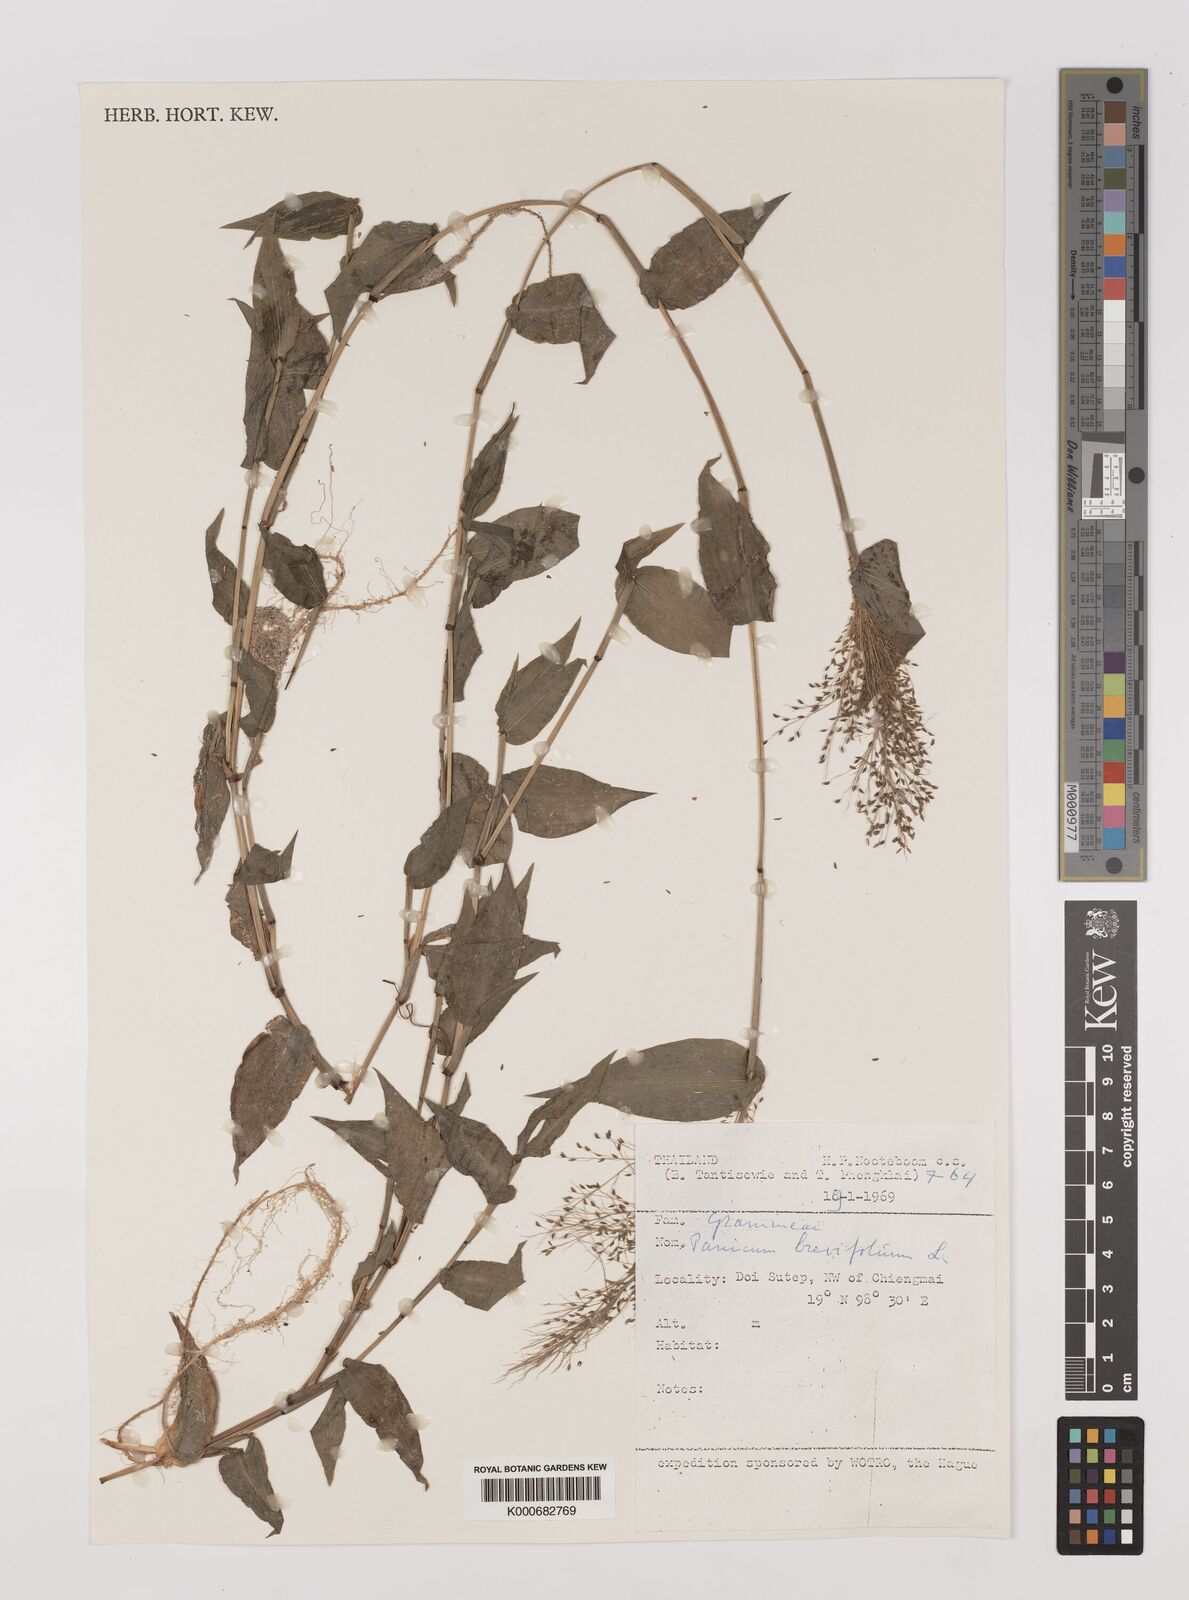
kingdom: Plantae
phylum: Tracheophyta
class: Liliopsida
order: Poales
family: Poaceae
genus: Panicum
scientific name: Panicum brevifolium
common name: Shortleaf panic grass
